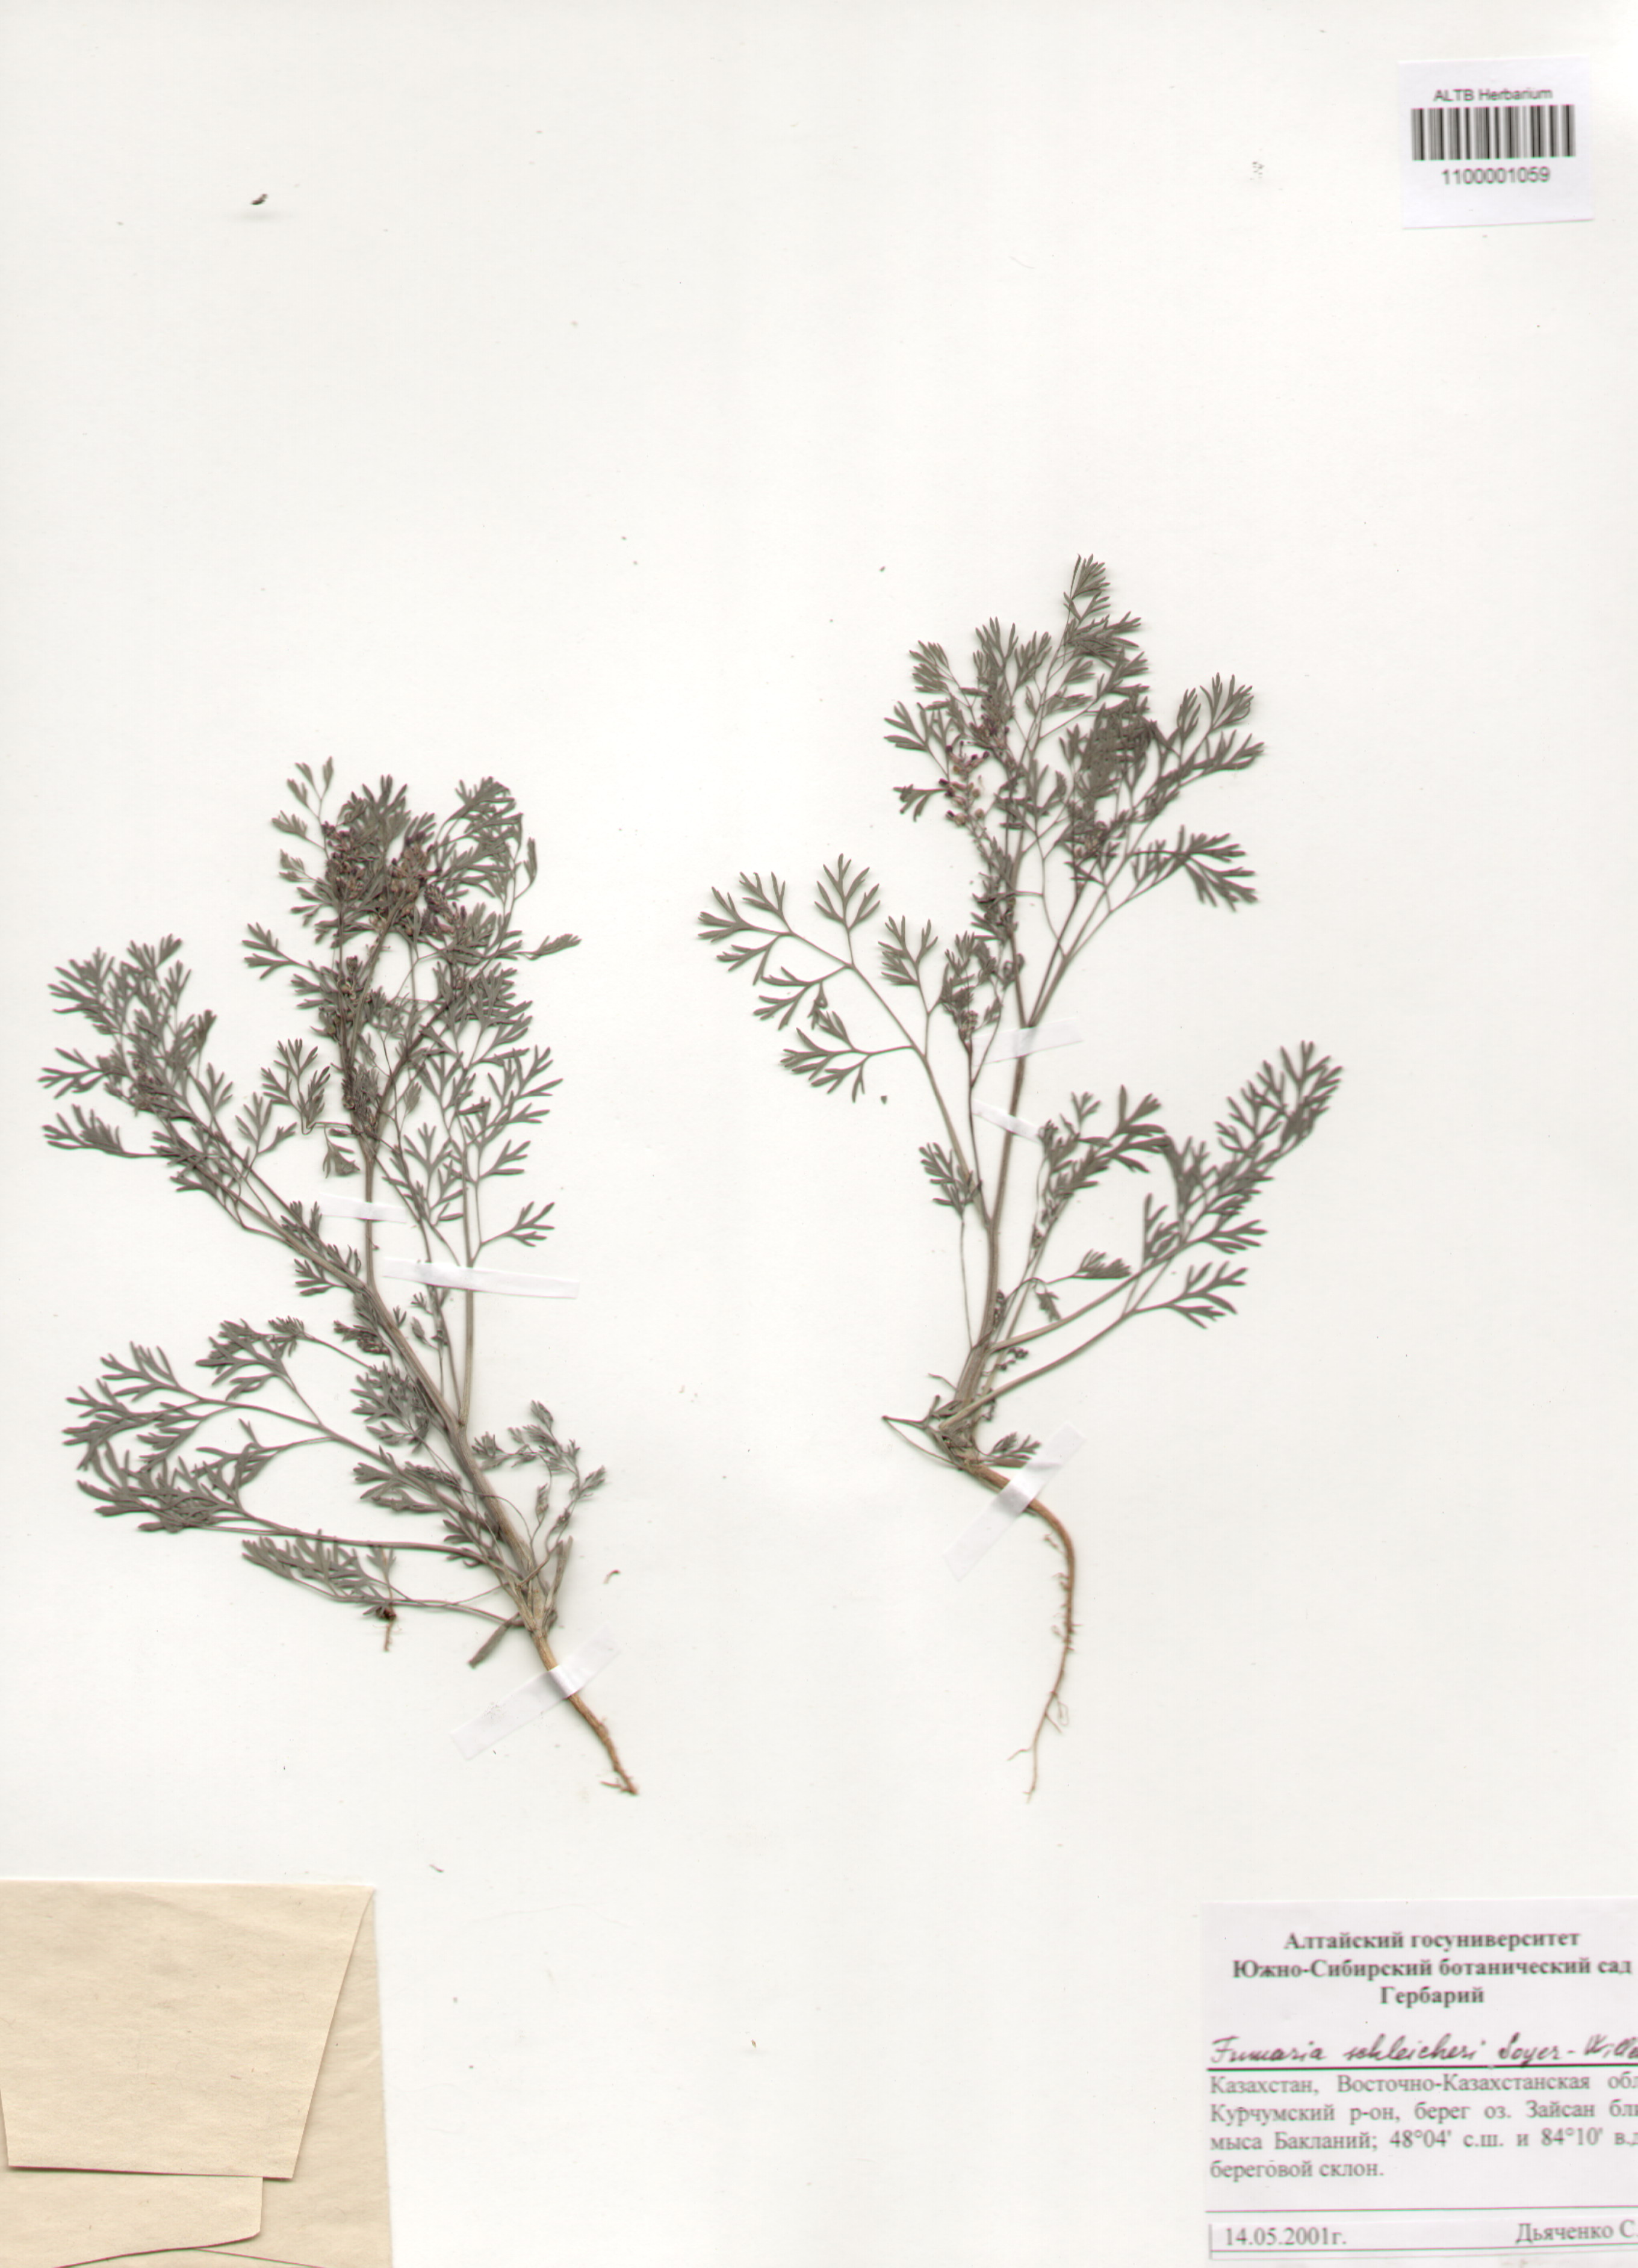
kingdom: Plantae
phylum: Tracheophyta
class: Magnoliopsida
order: Ranunculales
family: Papaveraceae
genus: Fumaria
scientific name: Fumaria schleicheri
